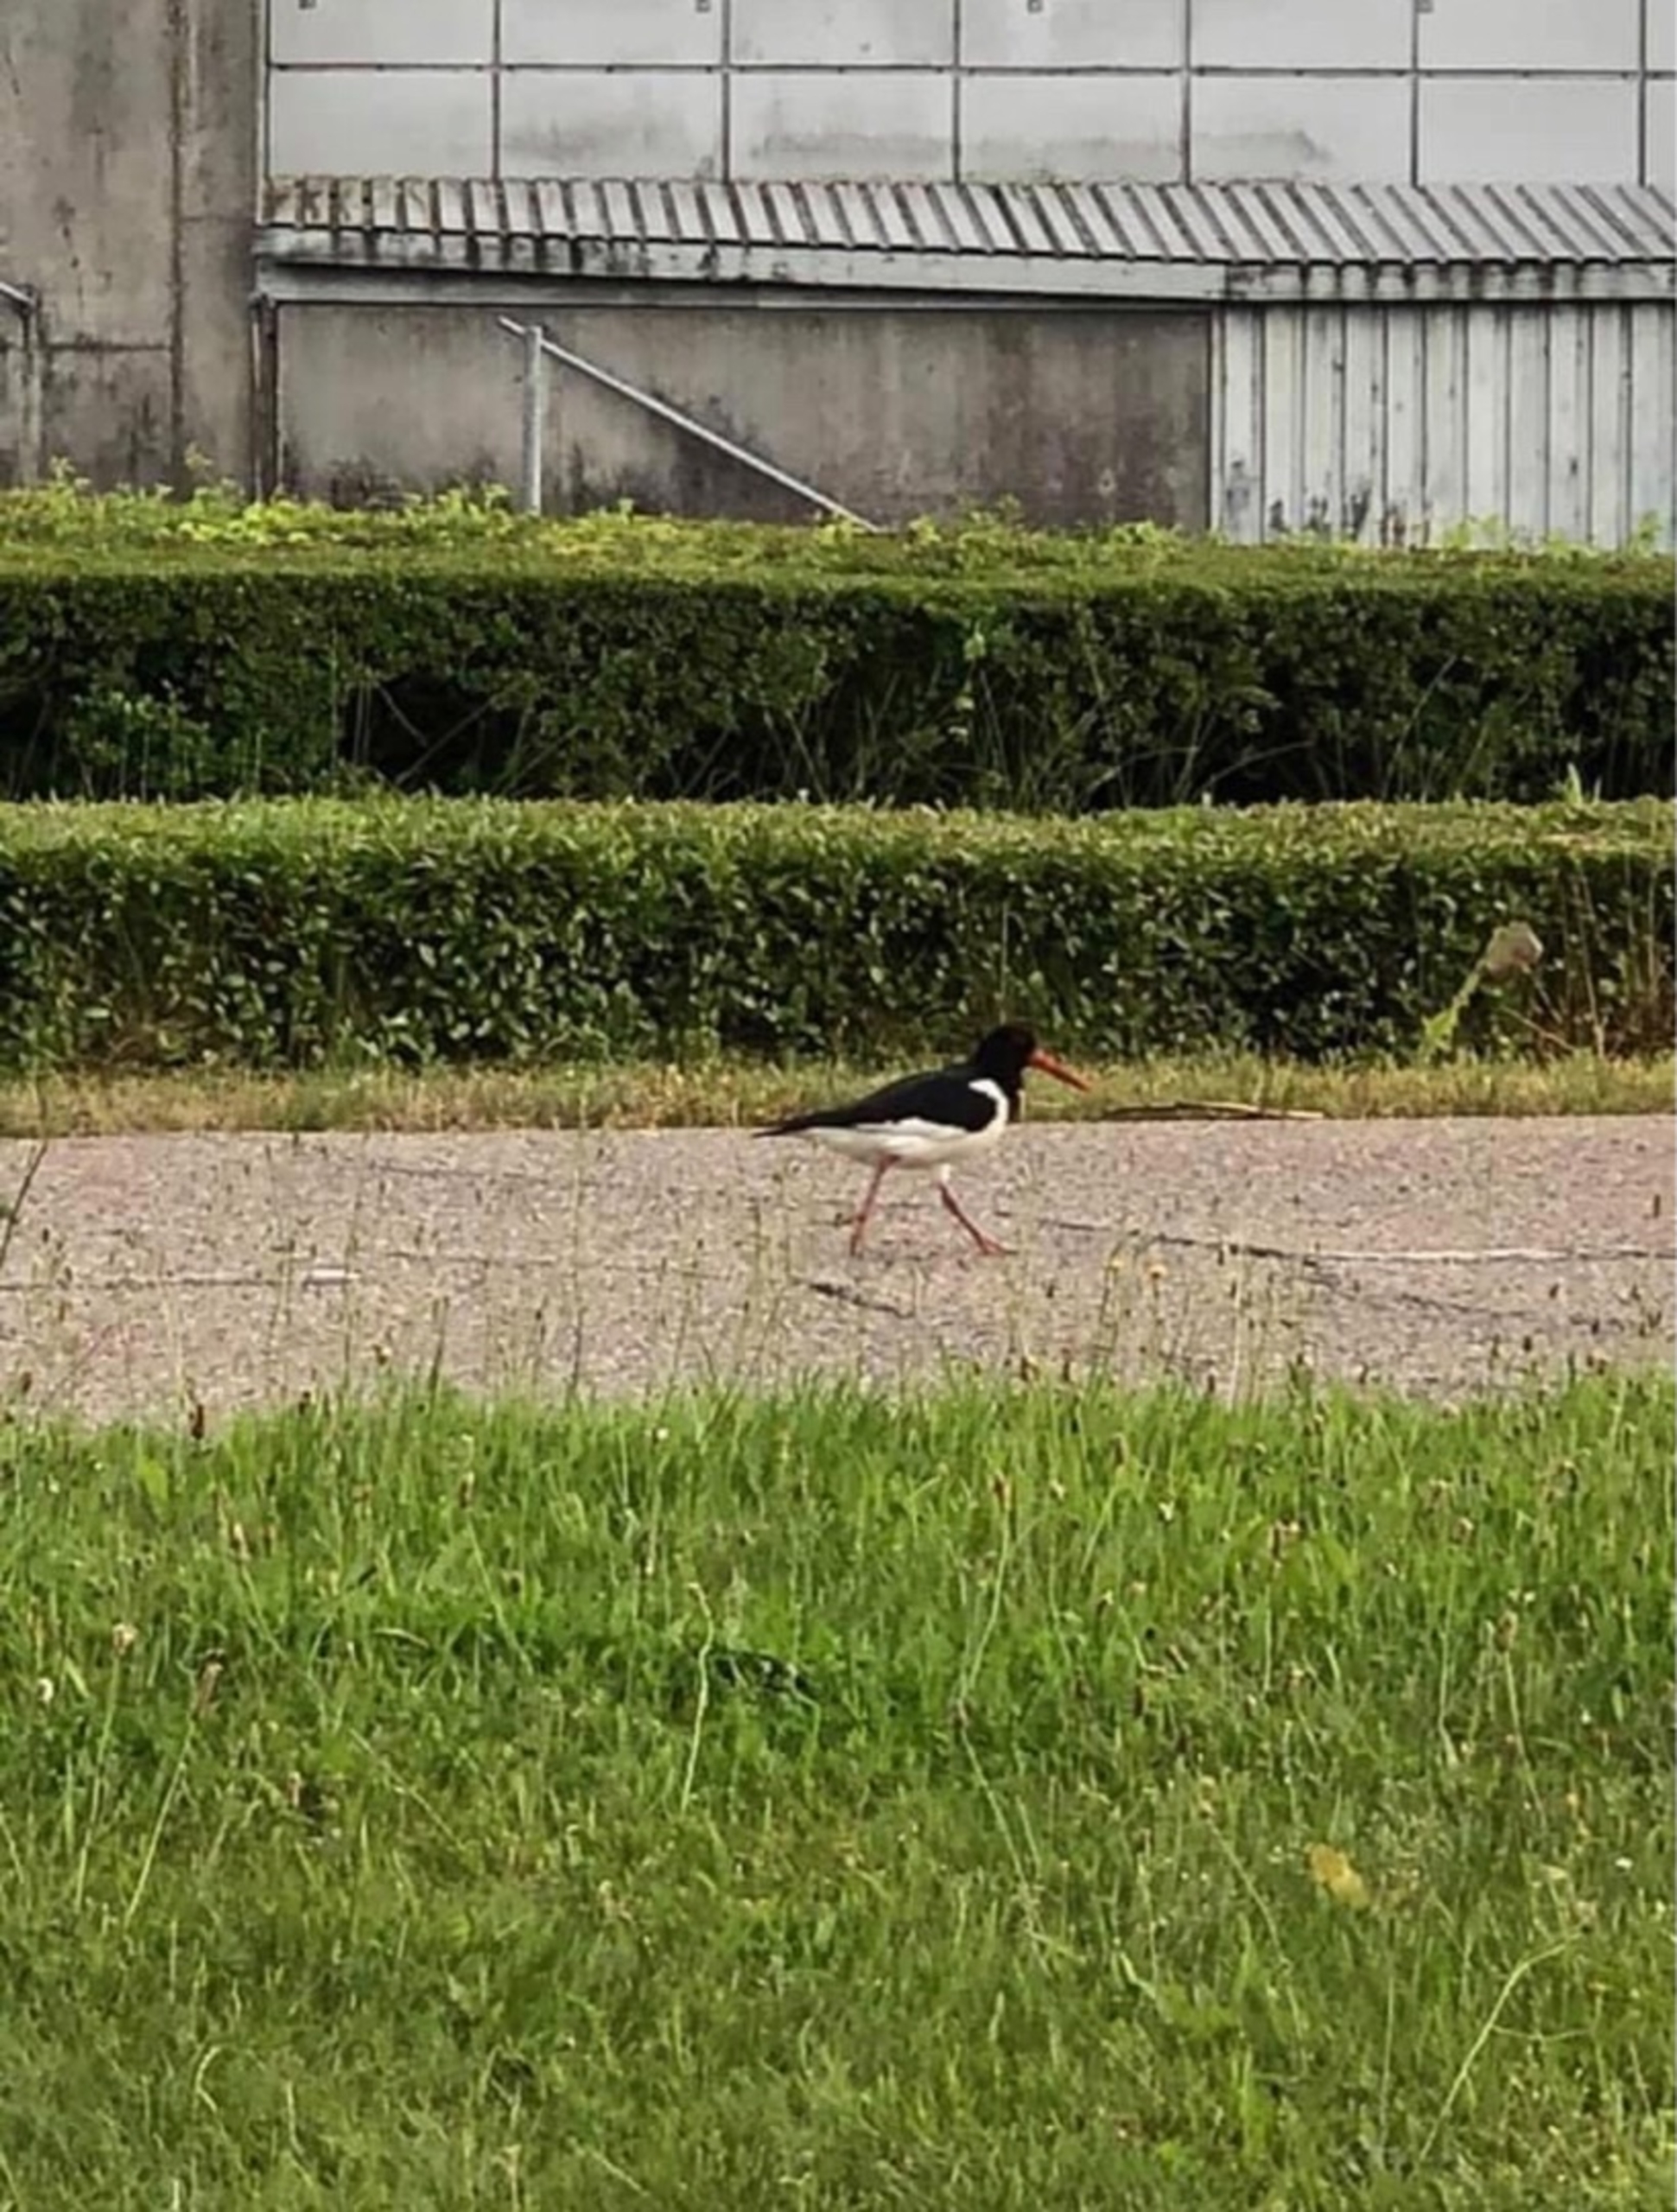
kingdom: Animalia
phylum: Chordata
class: Aves
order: Charadriiformes
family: Haematopodidae
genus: Haematopus
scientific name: Haematopus ostralegus
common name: Strandskade
